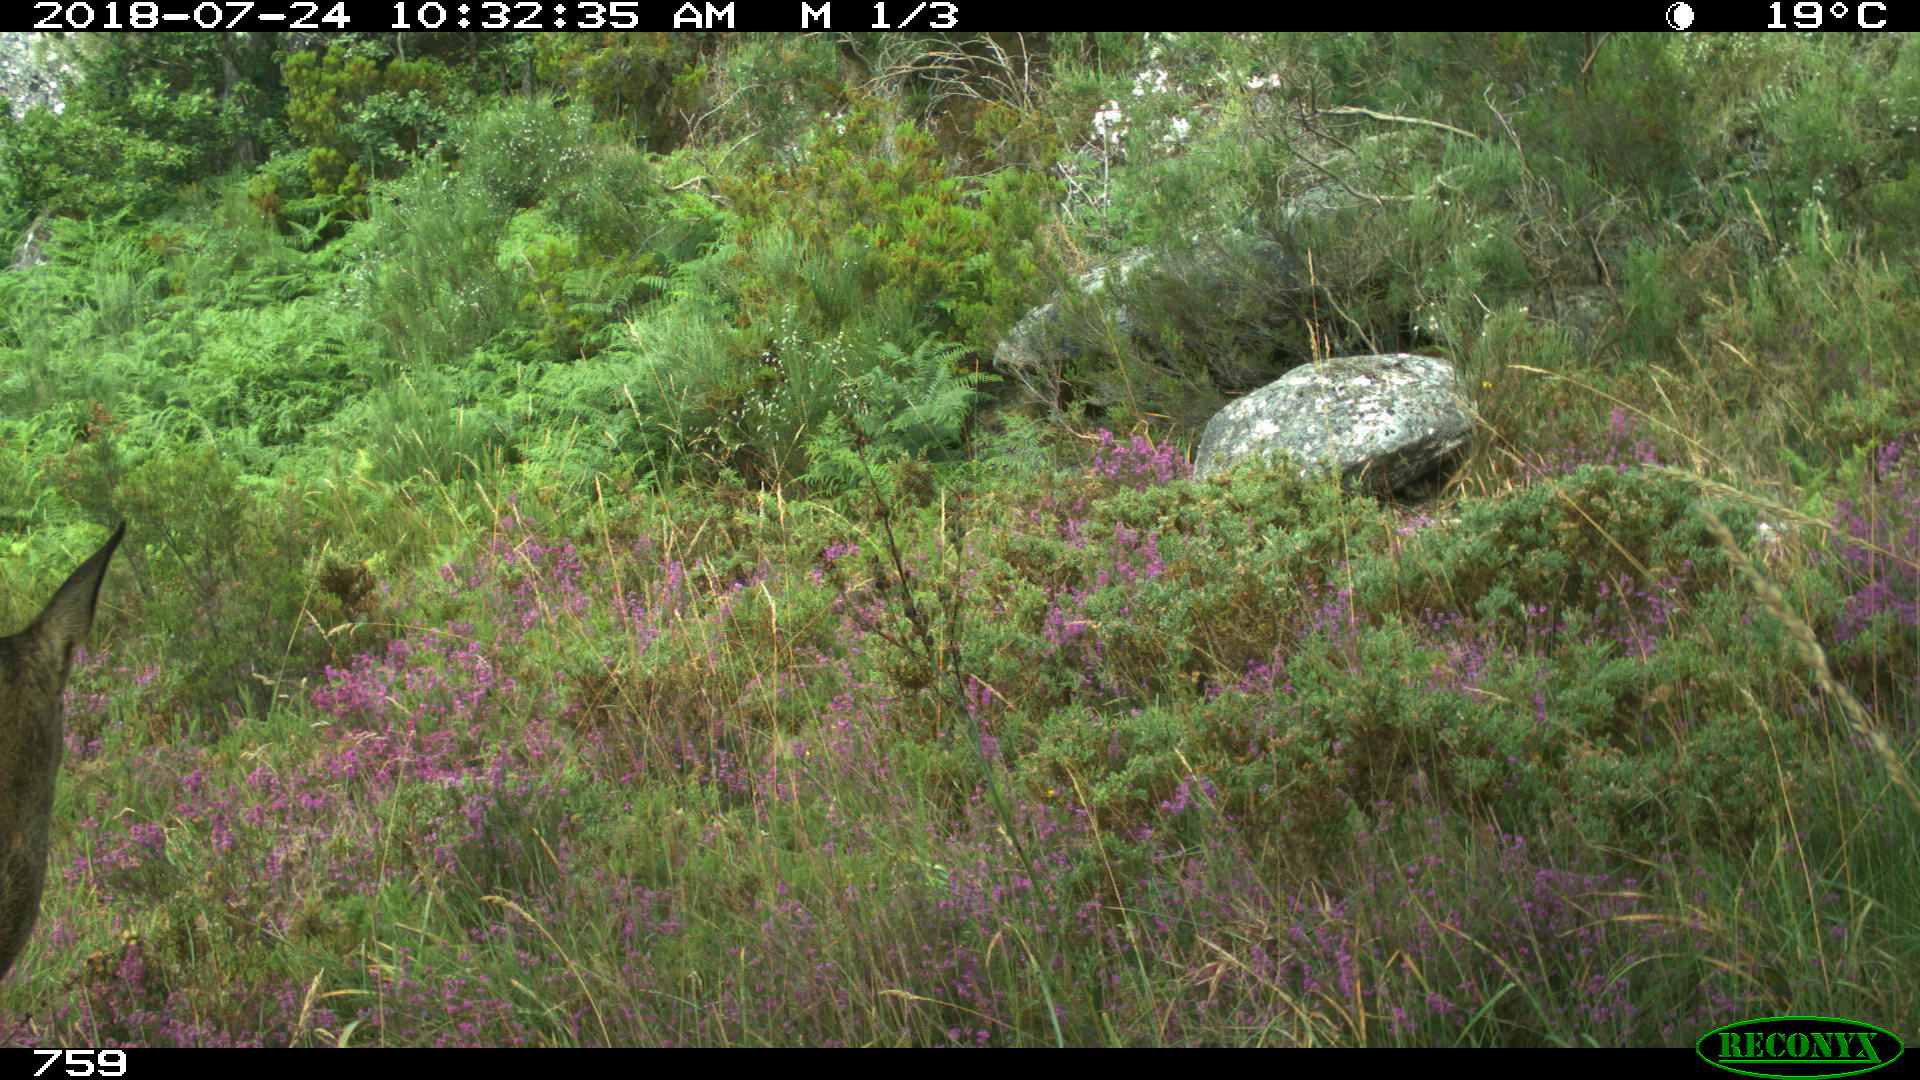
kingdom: Animalia
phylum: Chordata
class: Mammalia
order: Artiodactyla
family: Cervidae
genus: Capreolus
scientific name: Capreolus capreolus
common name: Western roe deer
